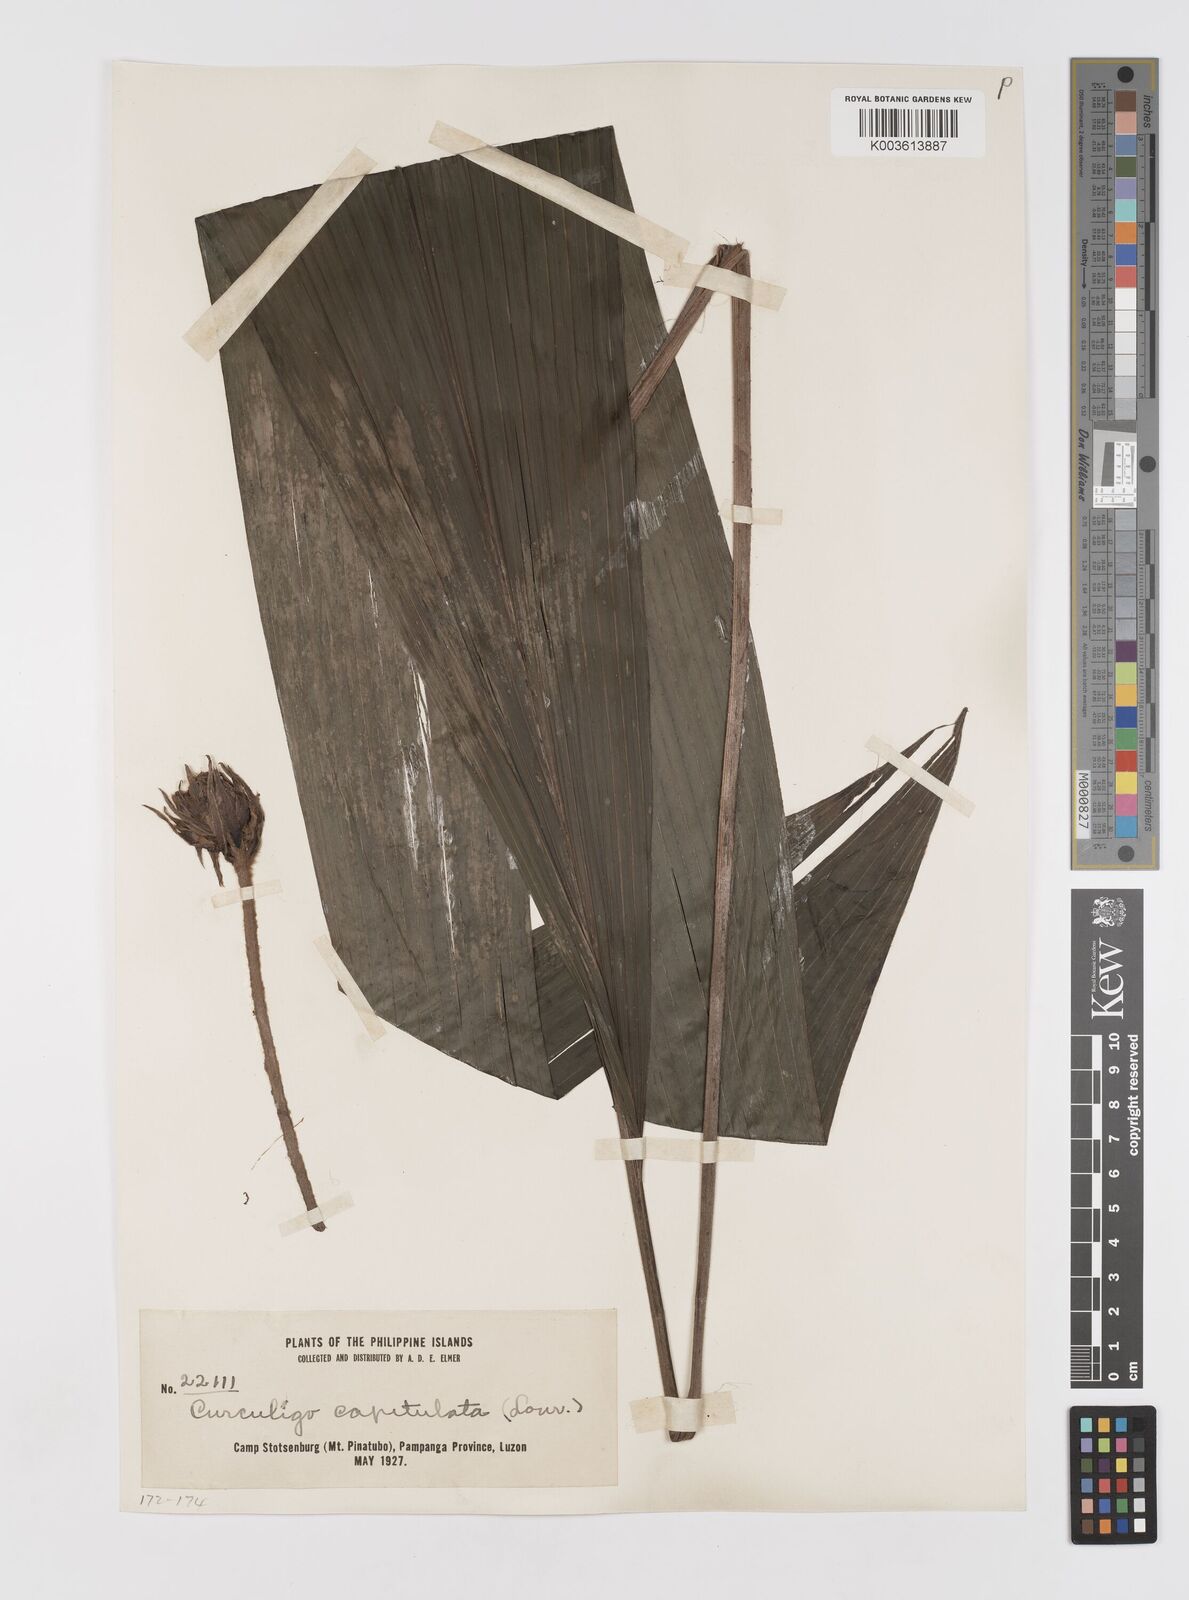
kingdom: Plantae
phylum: Tracheophyta
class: Liliopsida
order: Asparagales
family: Hypoxidaceae
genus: Curculigo
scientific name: Curculigo capitulata
